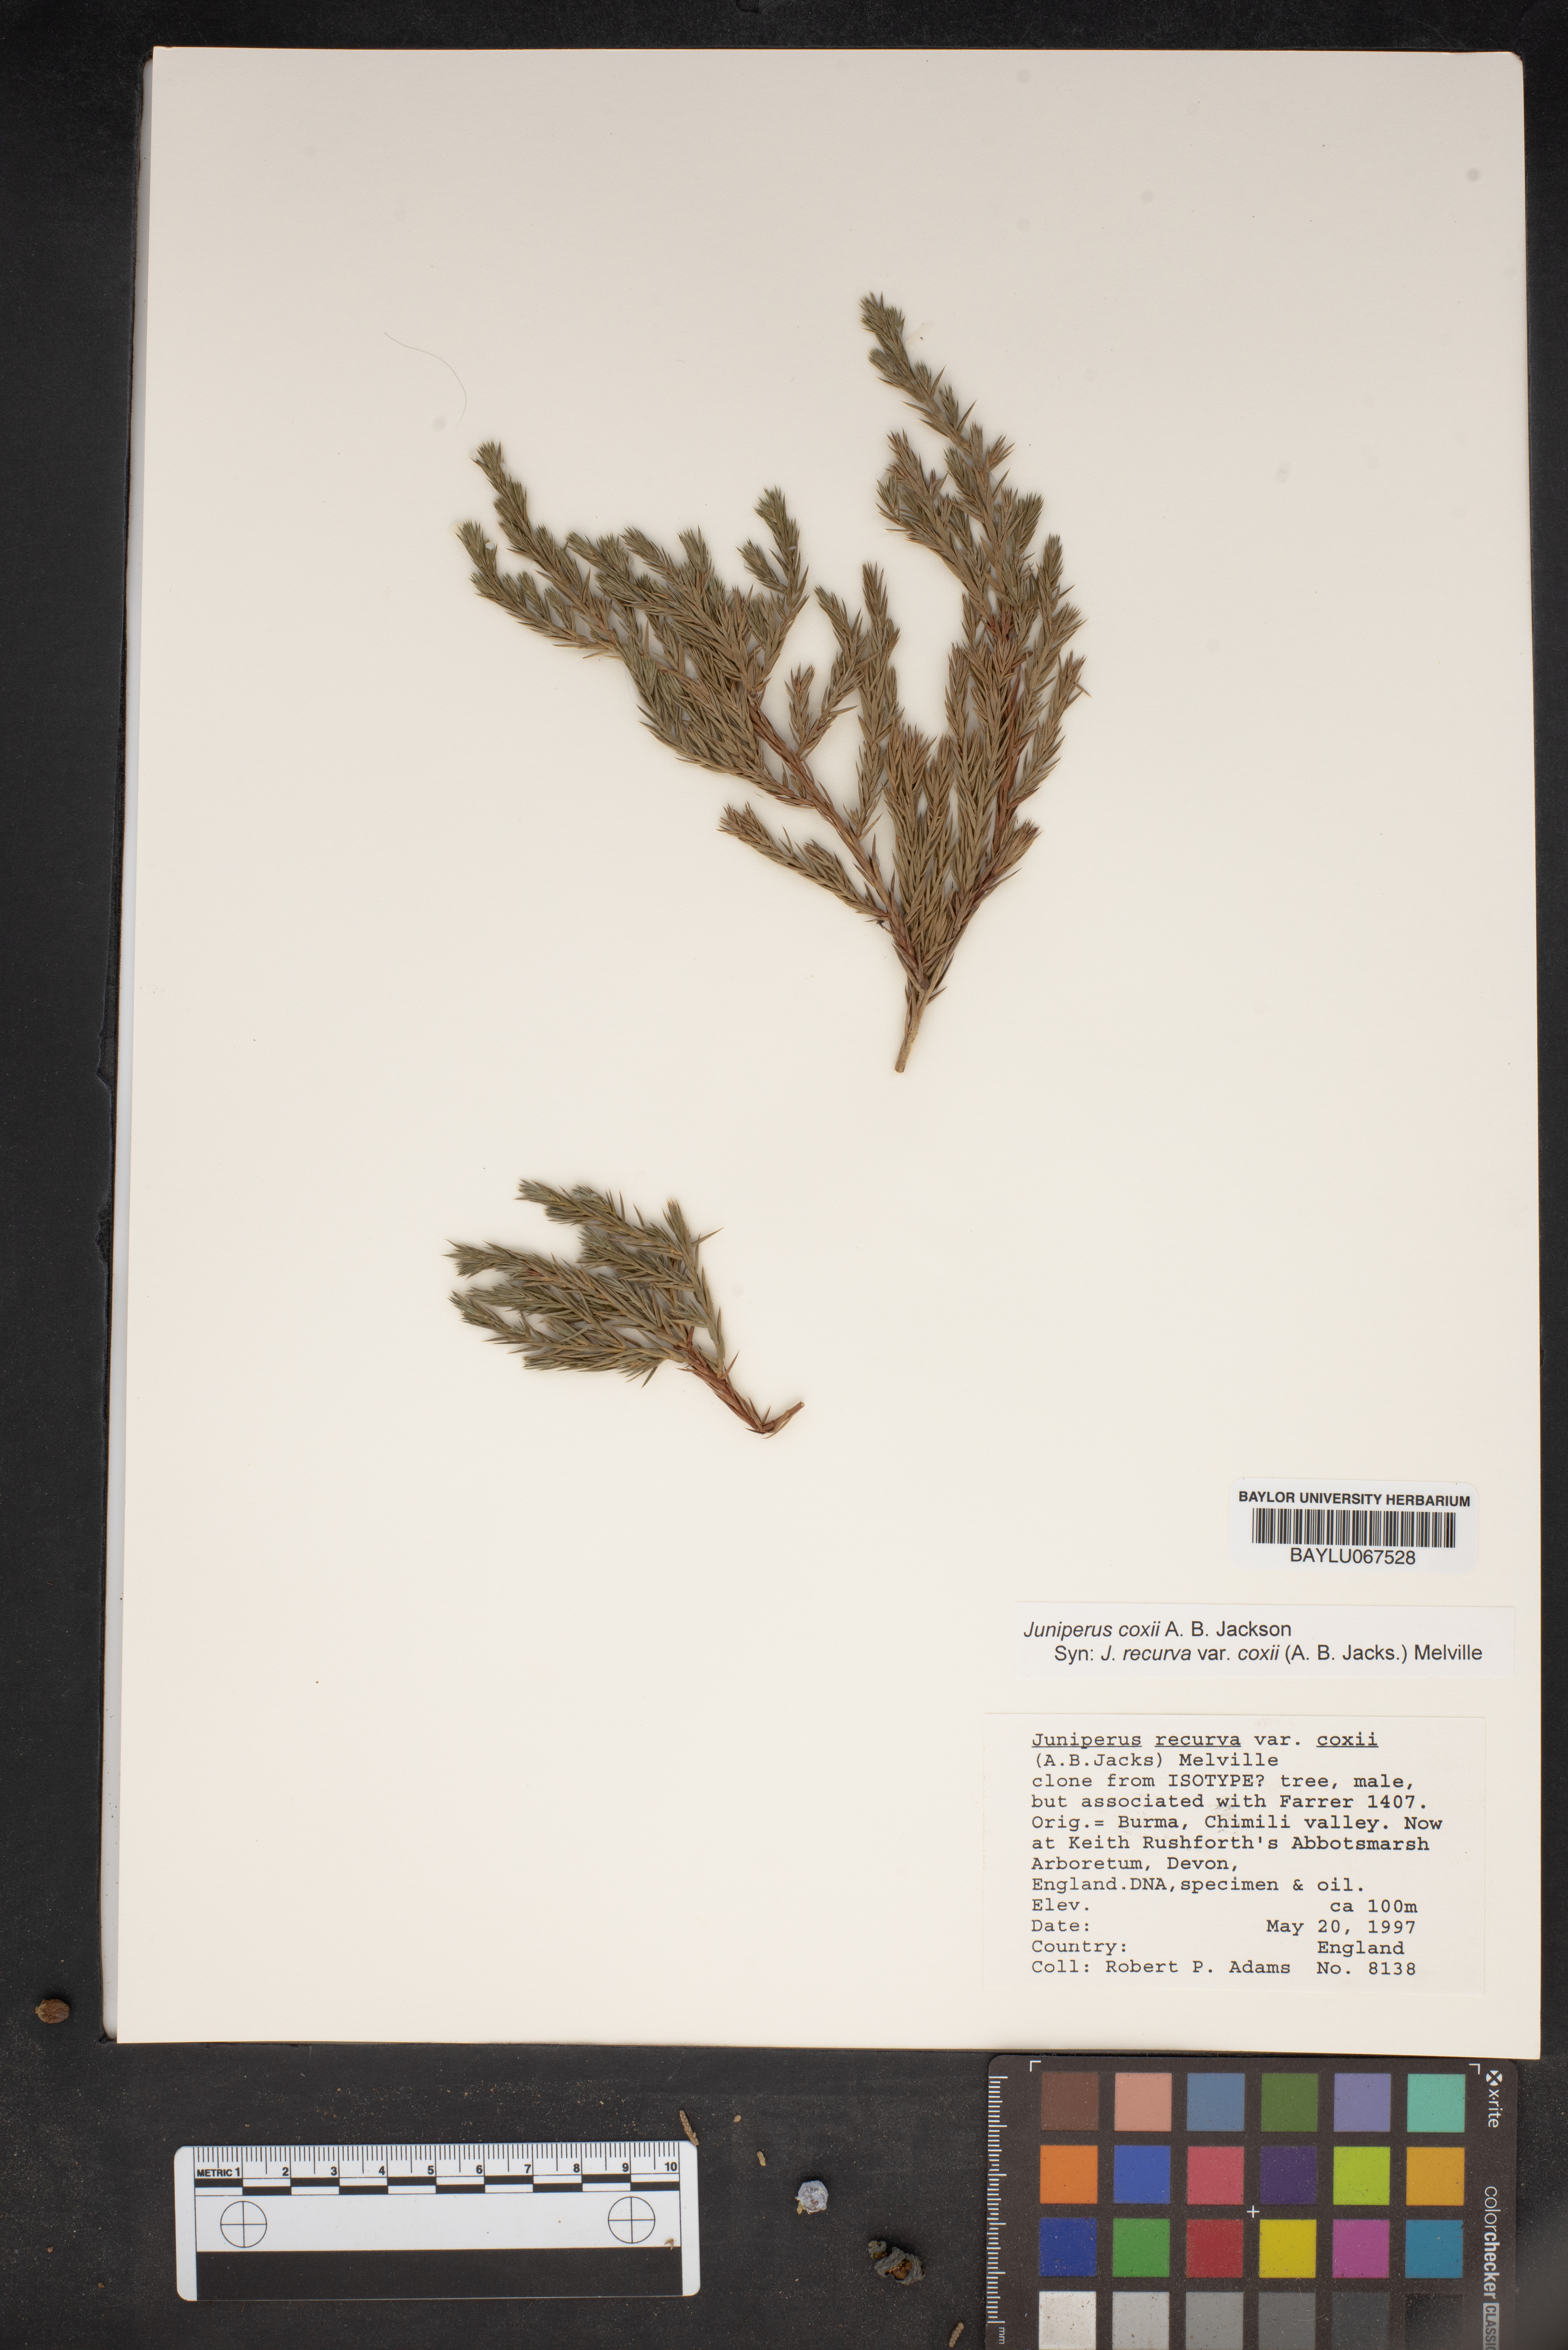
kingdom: Plantae
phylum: Tracheophyta
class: Pinopsida
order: Pinales
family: Cupressaceae
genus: Juniperus
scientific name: Juniperus recurva
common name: Drooping juniper
